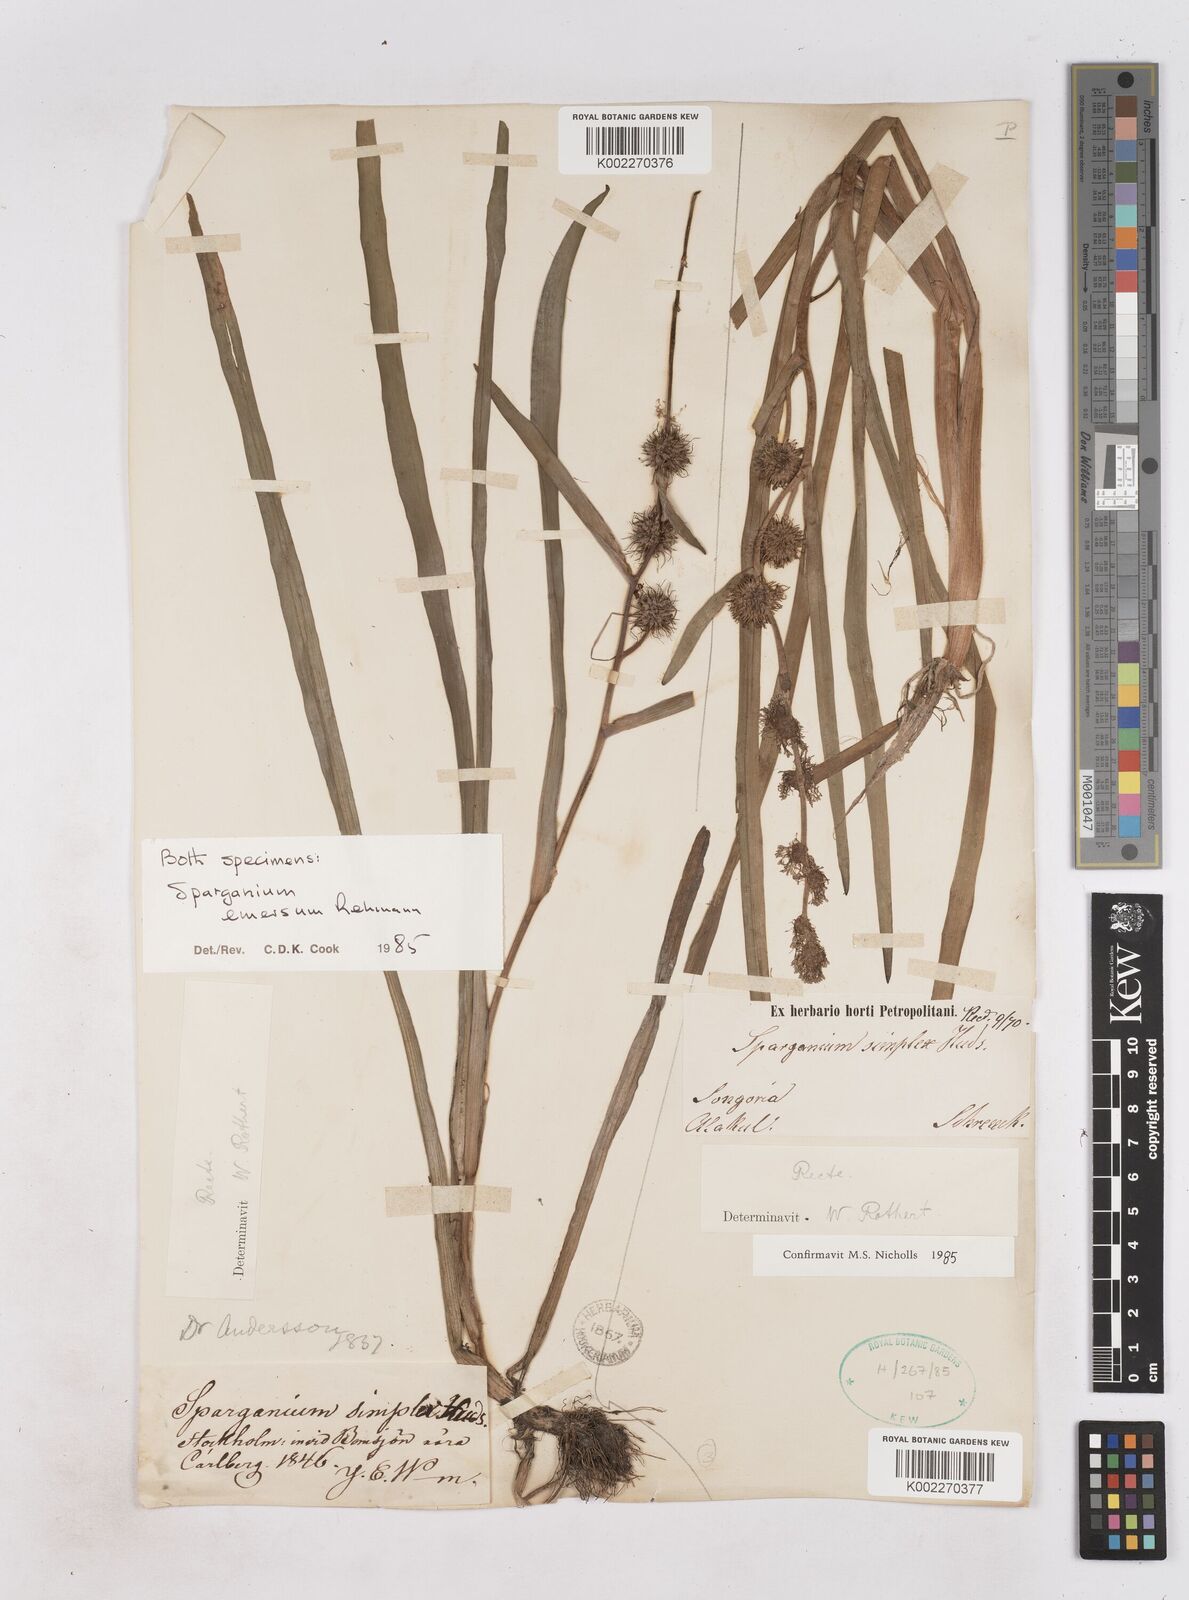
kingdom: Plantae
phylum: Tracheophyta
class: Liliopsida
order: Poales
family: Typhaceae
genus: Sparganium
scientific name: Sparganium angustifolium
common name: Floating bur-reed
